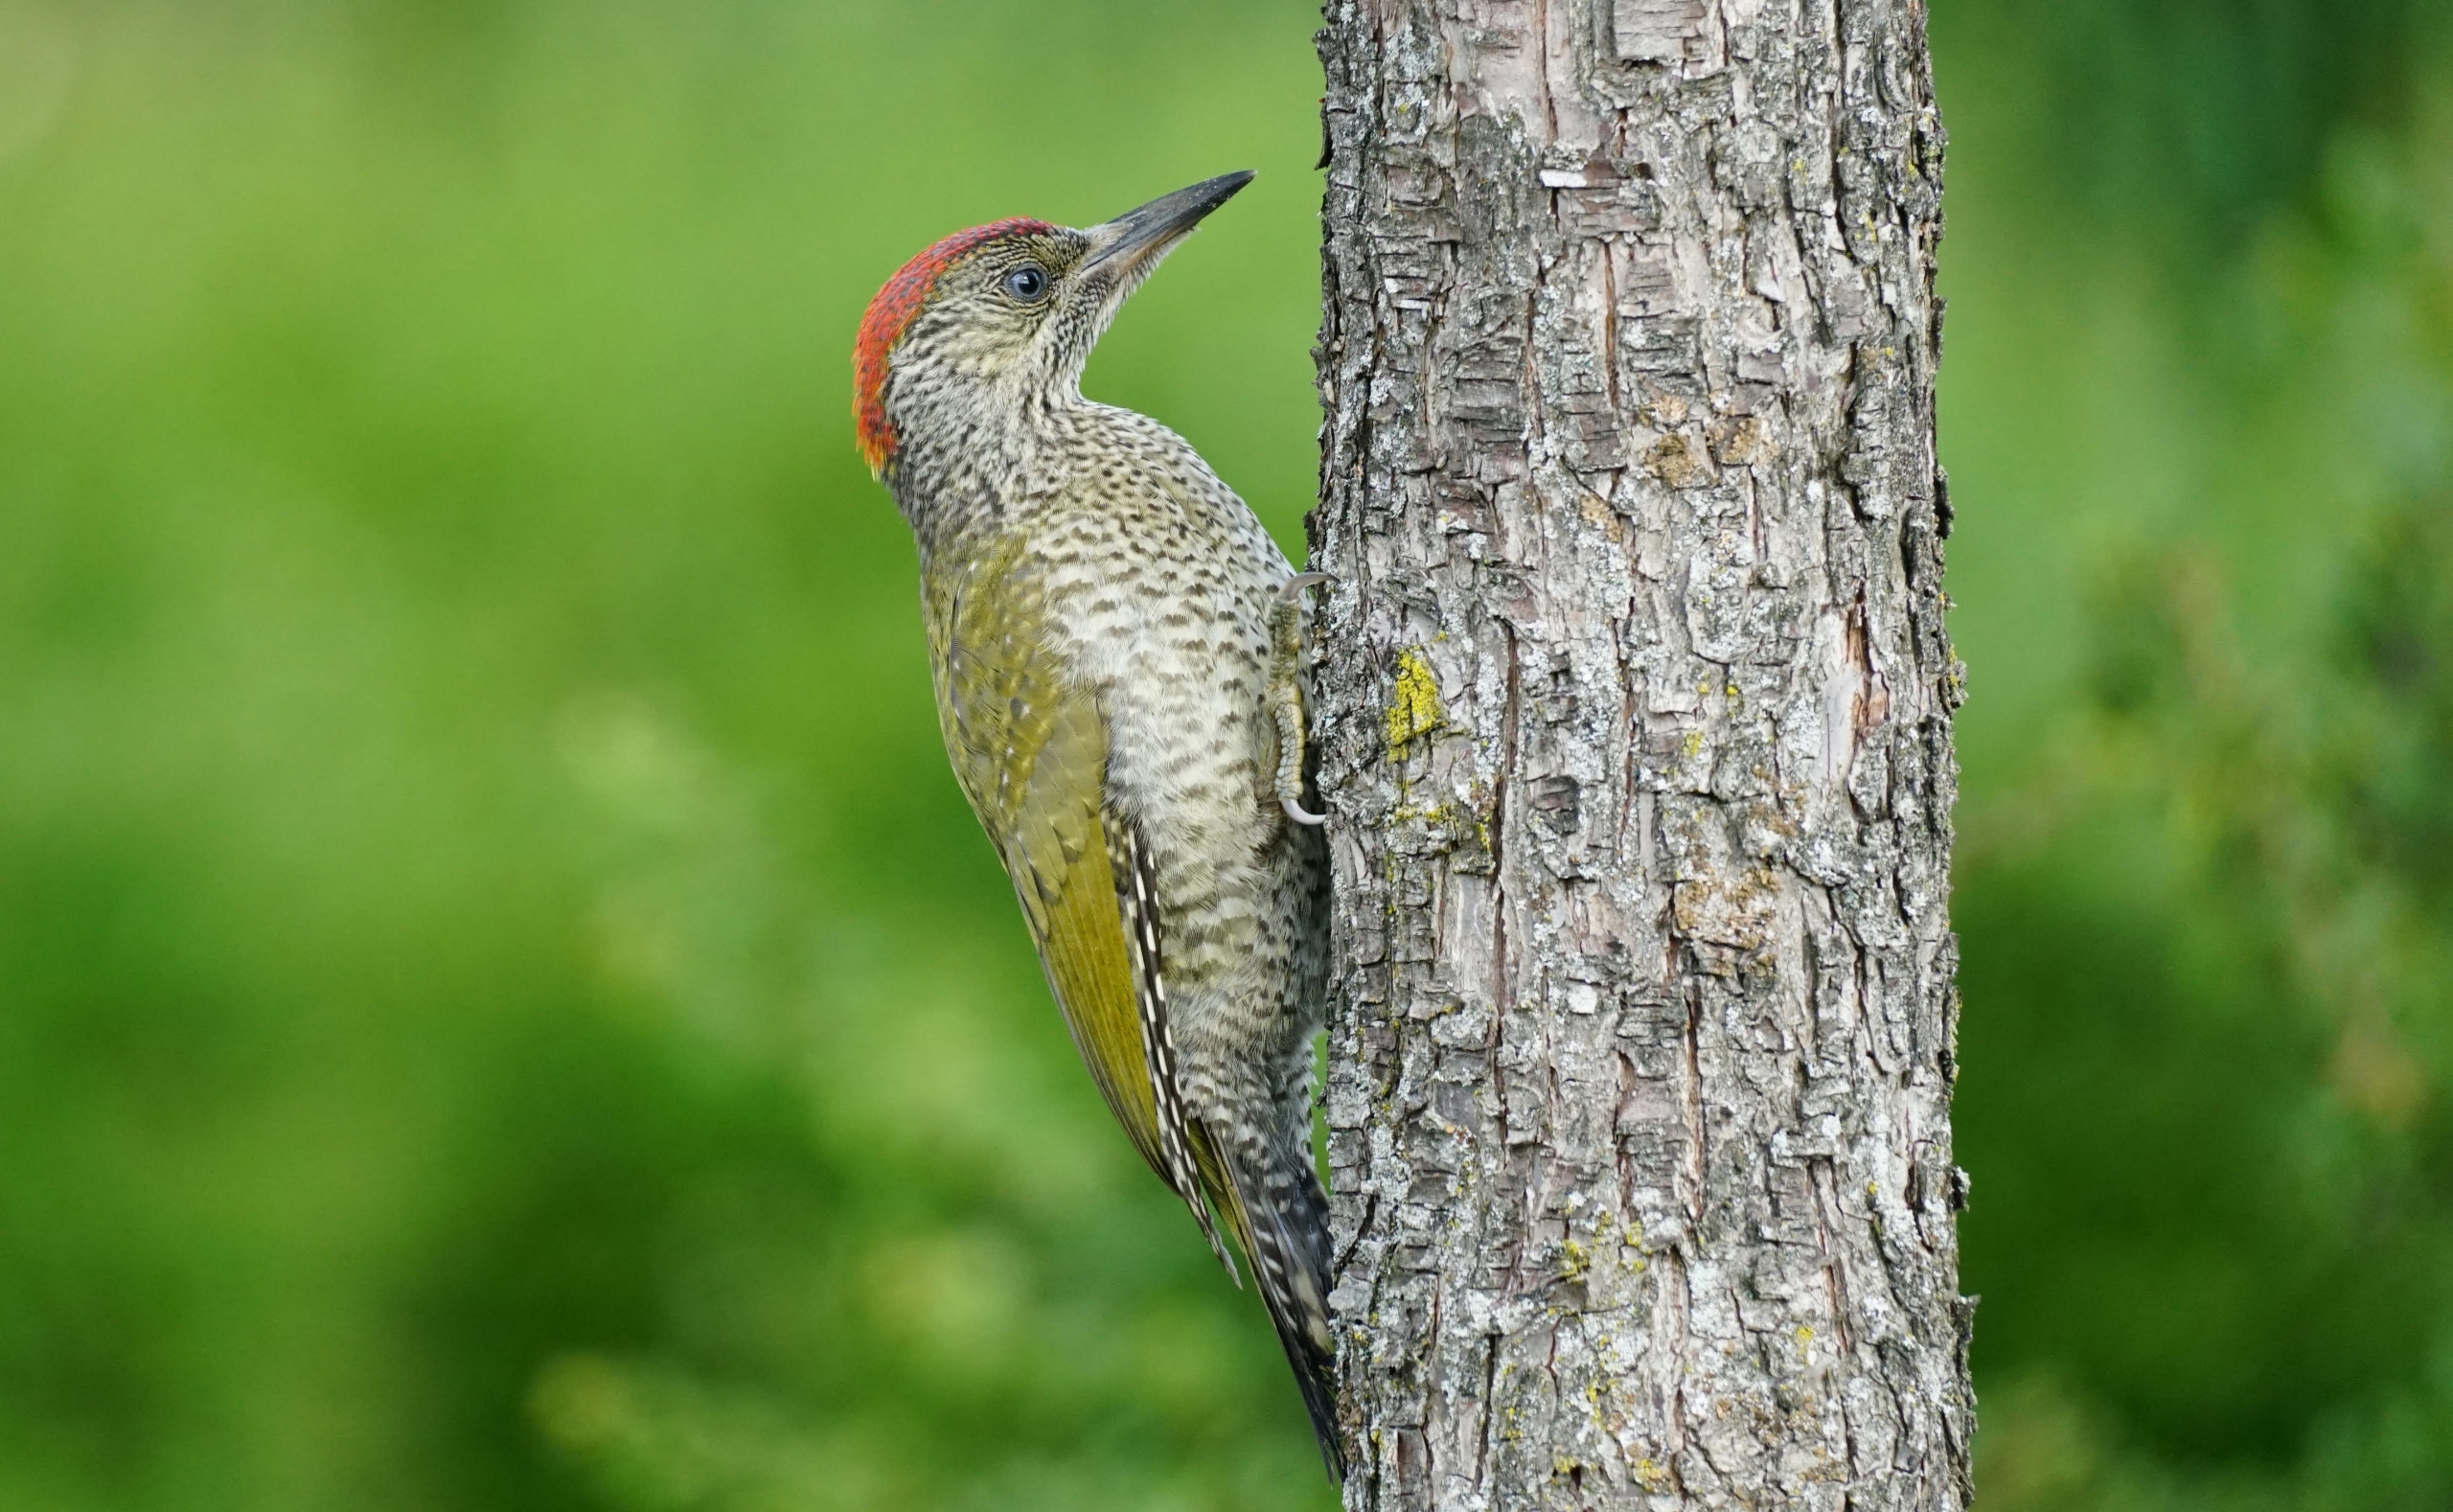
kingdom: Animalia
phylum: Chordata
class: Aves
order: Piciformes
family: Picidae
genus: Picus
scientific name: Picus viridis
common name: Grønspætte
